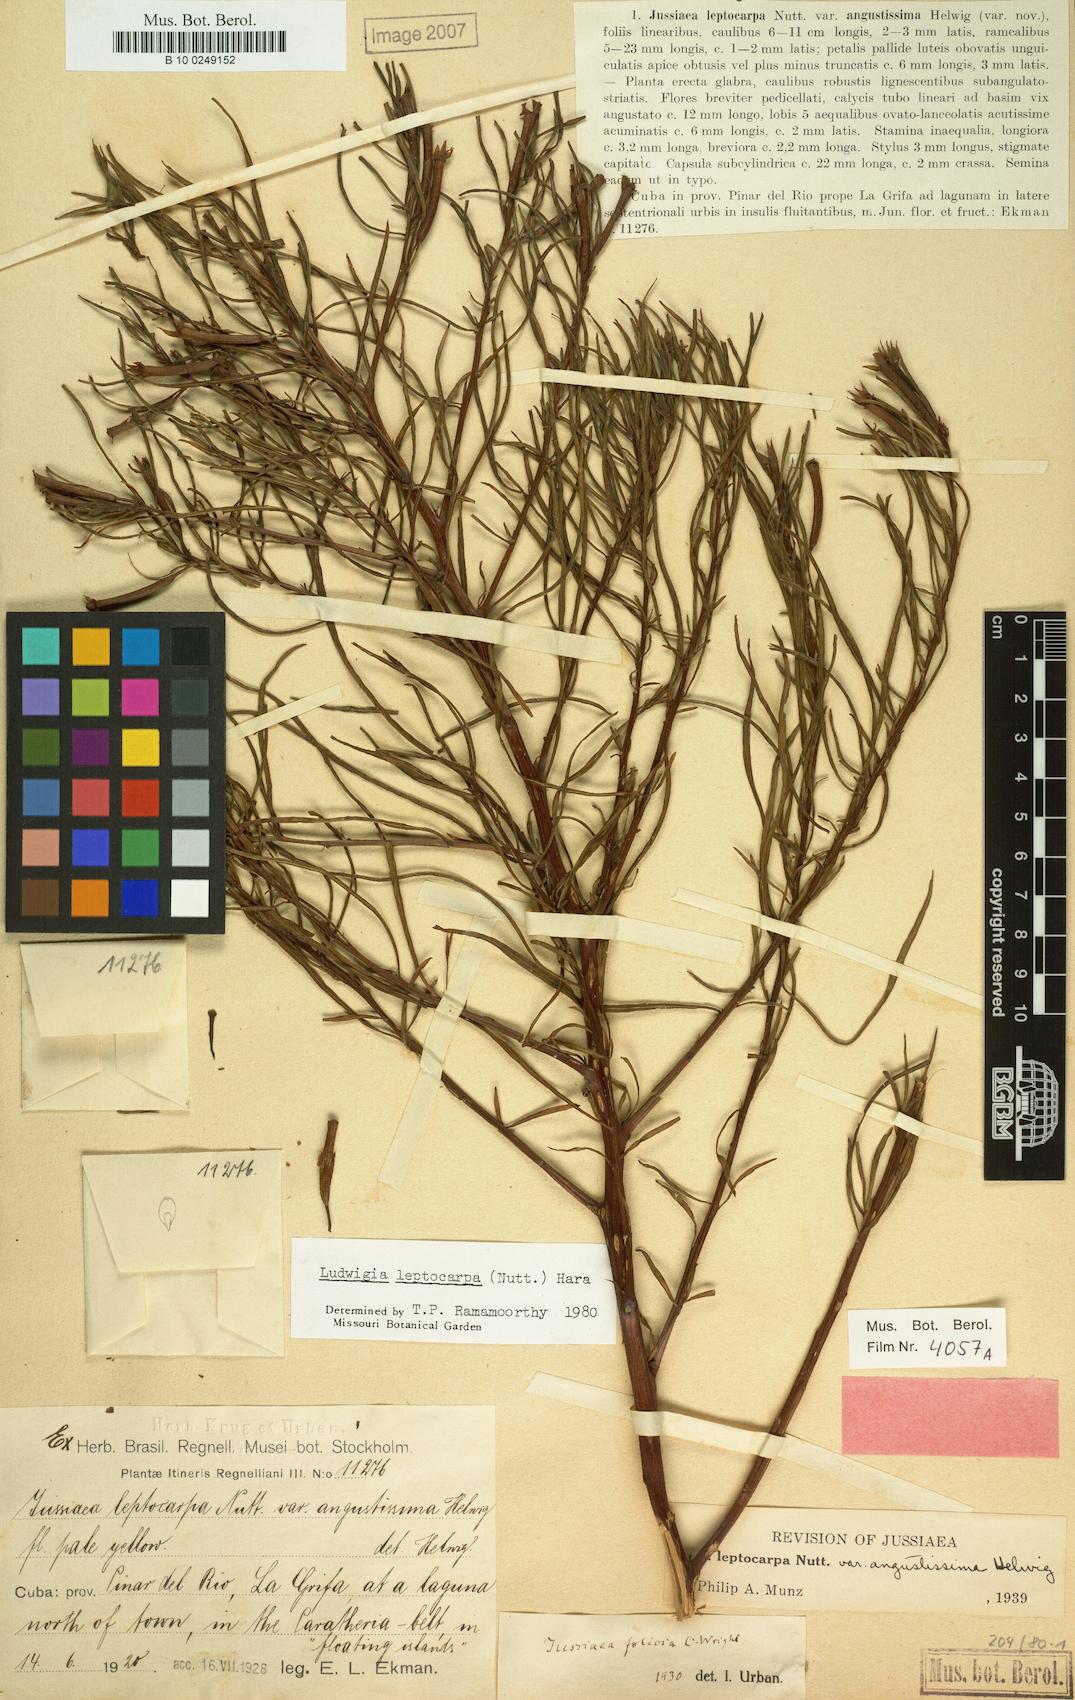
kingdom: Plantae
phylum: Tracheophyta
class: Magnoliopsida
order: Myrtales
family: Onagraceae
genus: Ludwigia
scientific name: Ludwigia leptocarpa
